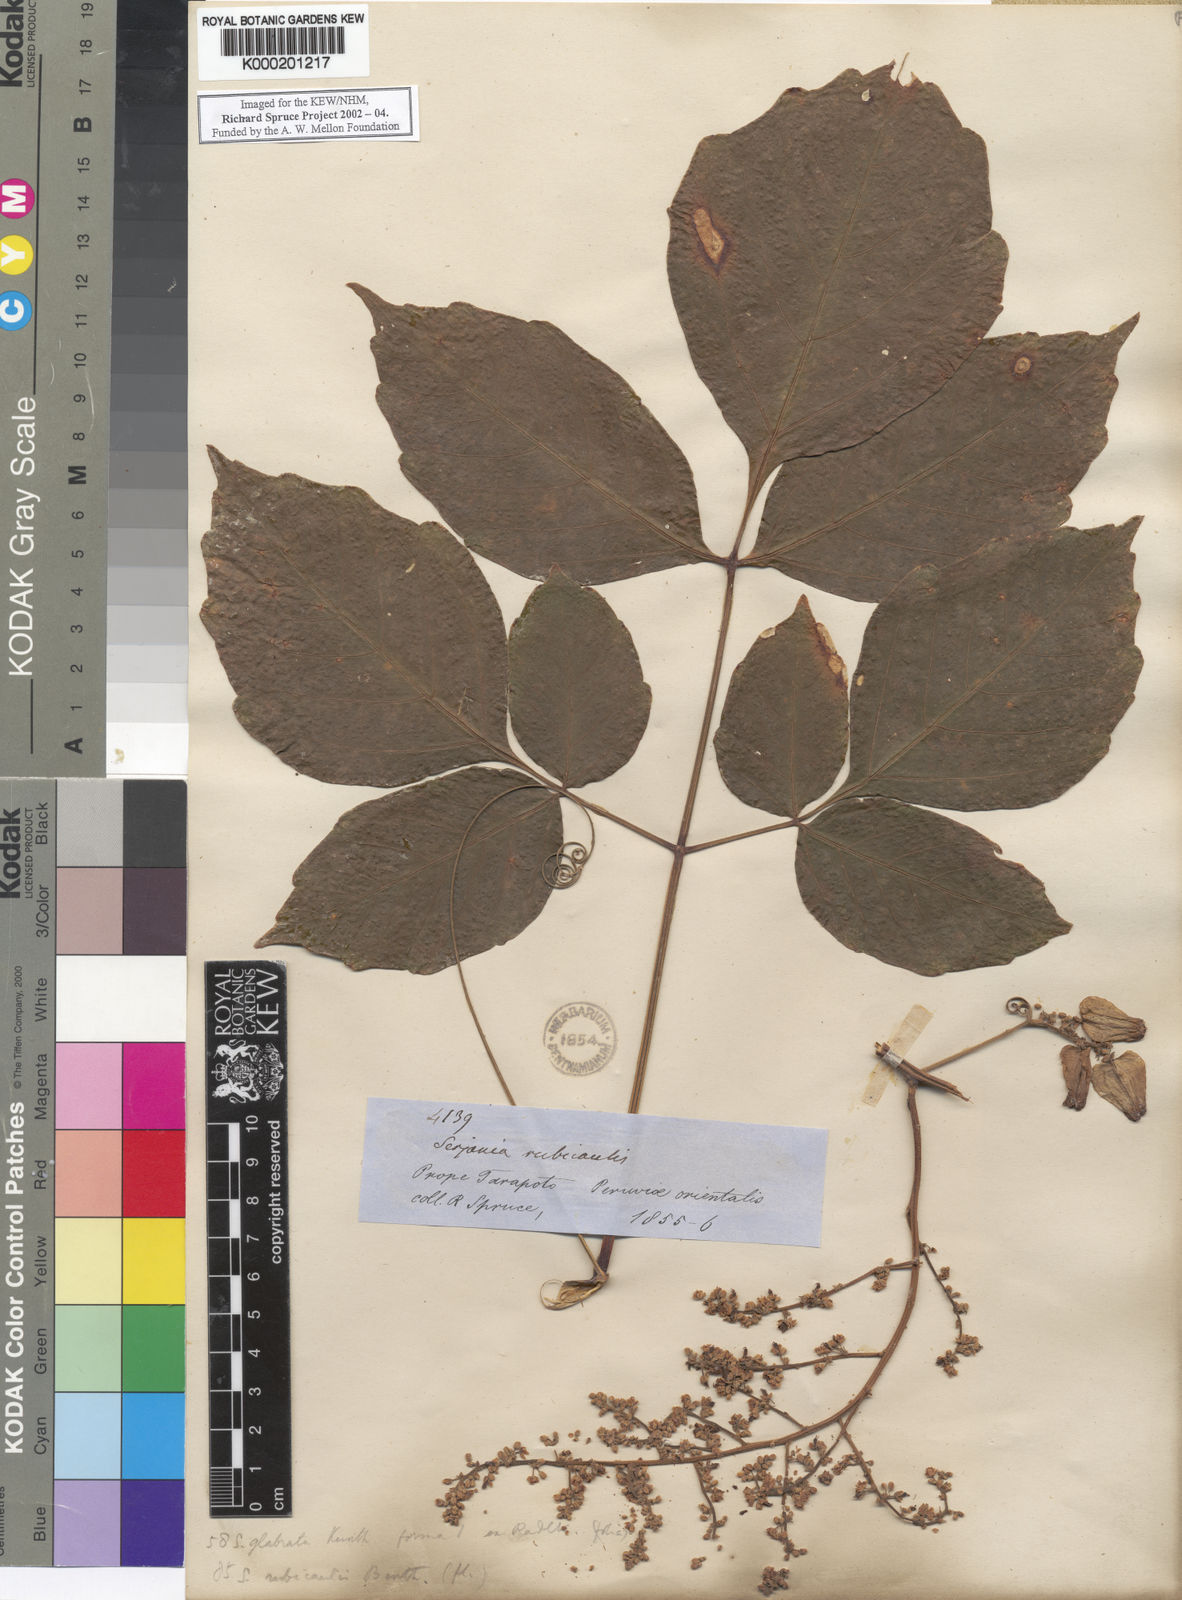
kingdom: Plantae
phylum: Tracheophyta
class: Magnoliopsida
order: Sapindales
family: Sapindaceae
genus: Serjania
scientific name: Serjania rubicaulis
